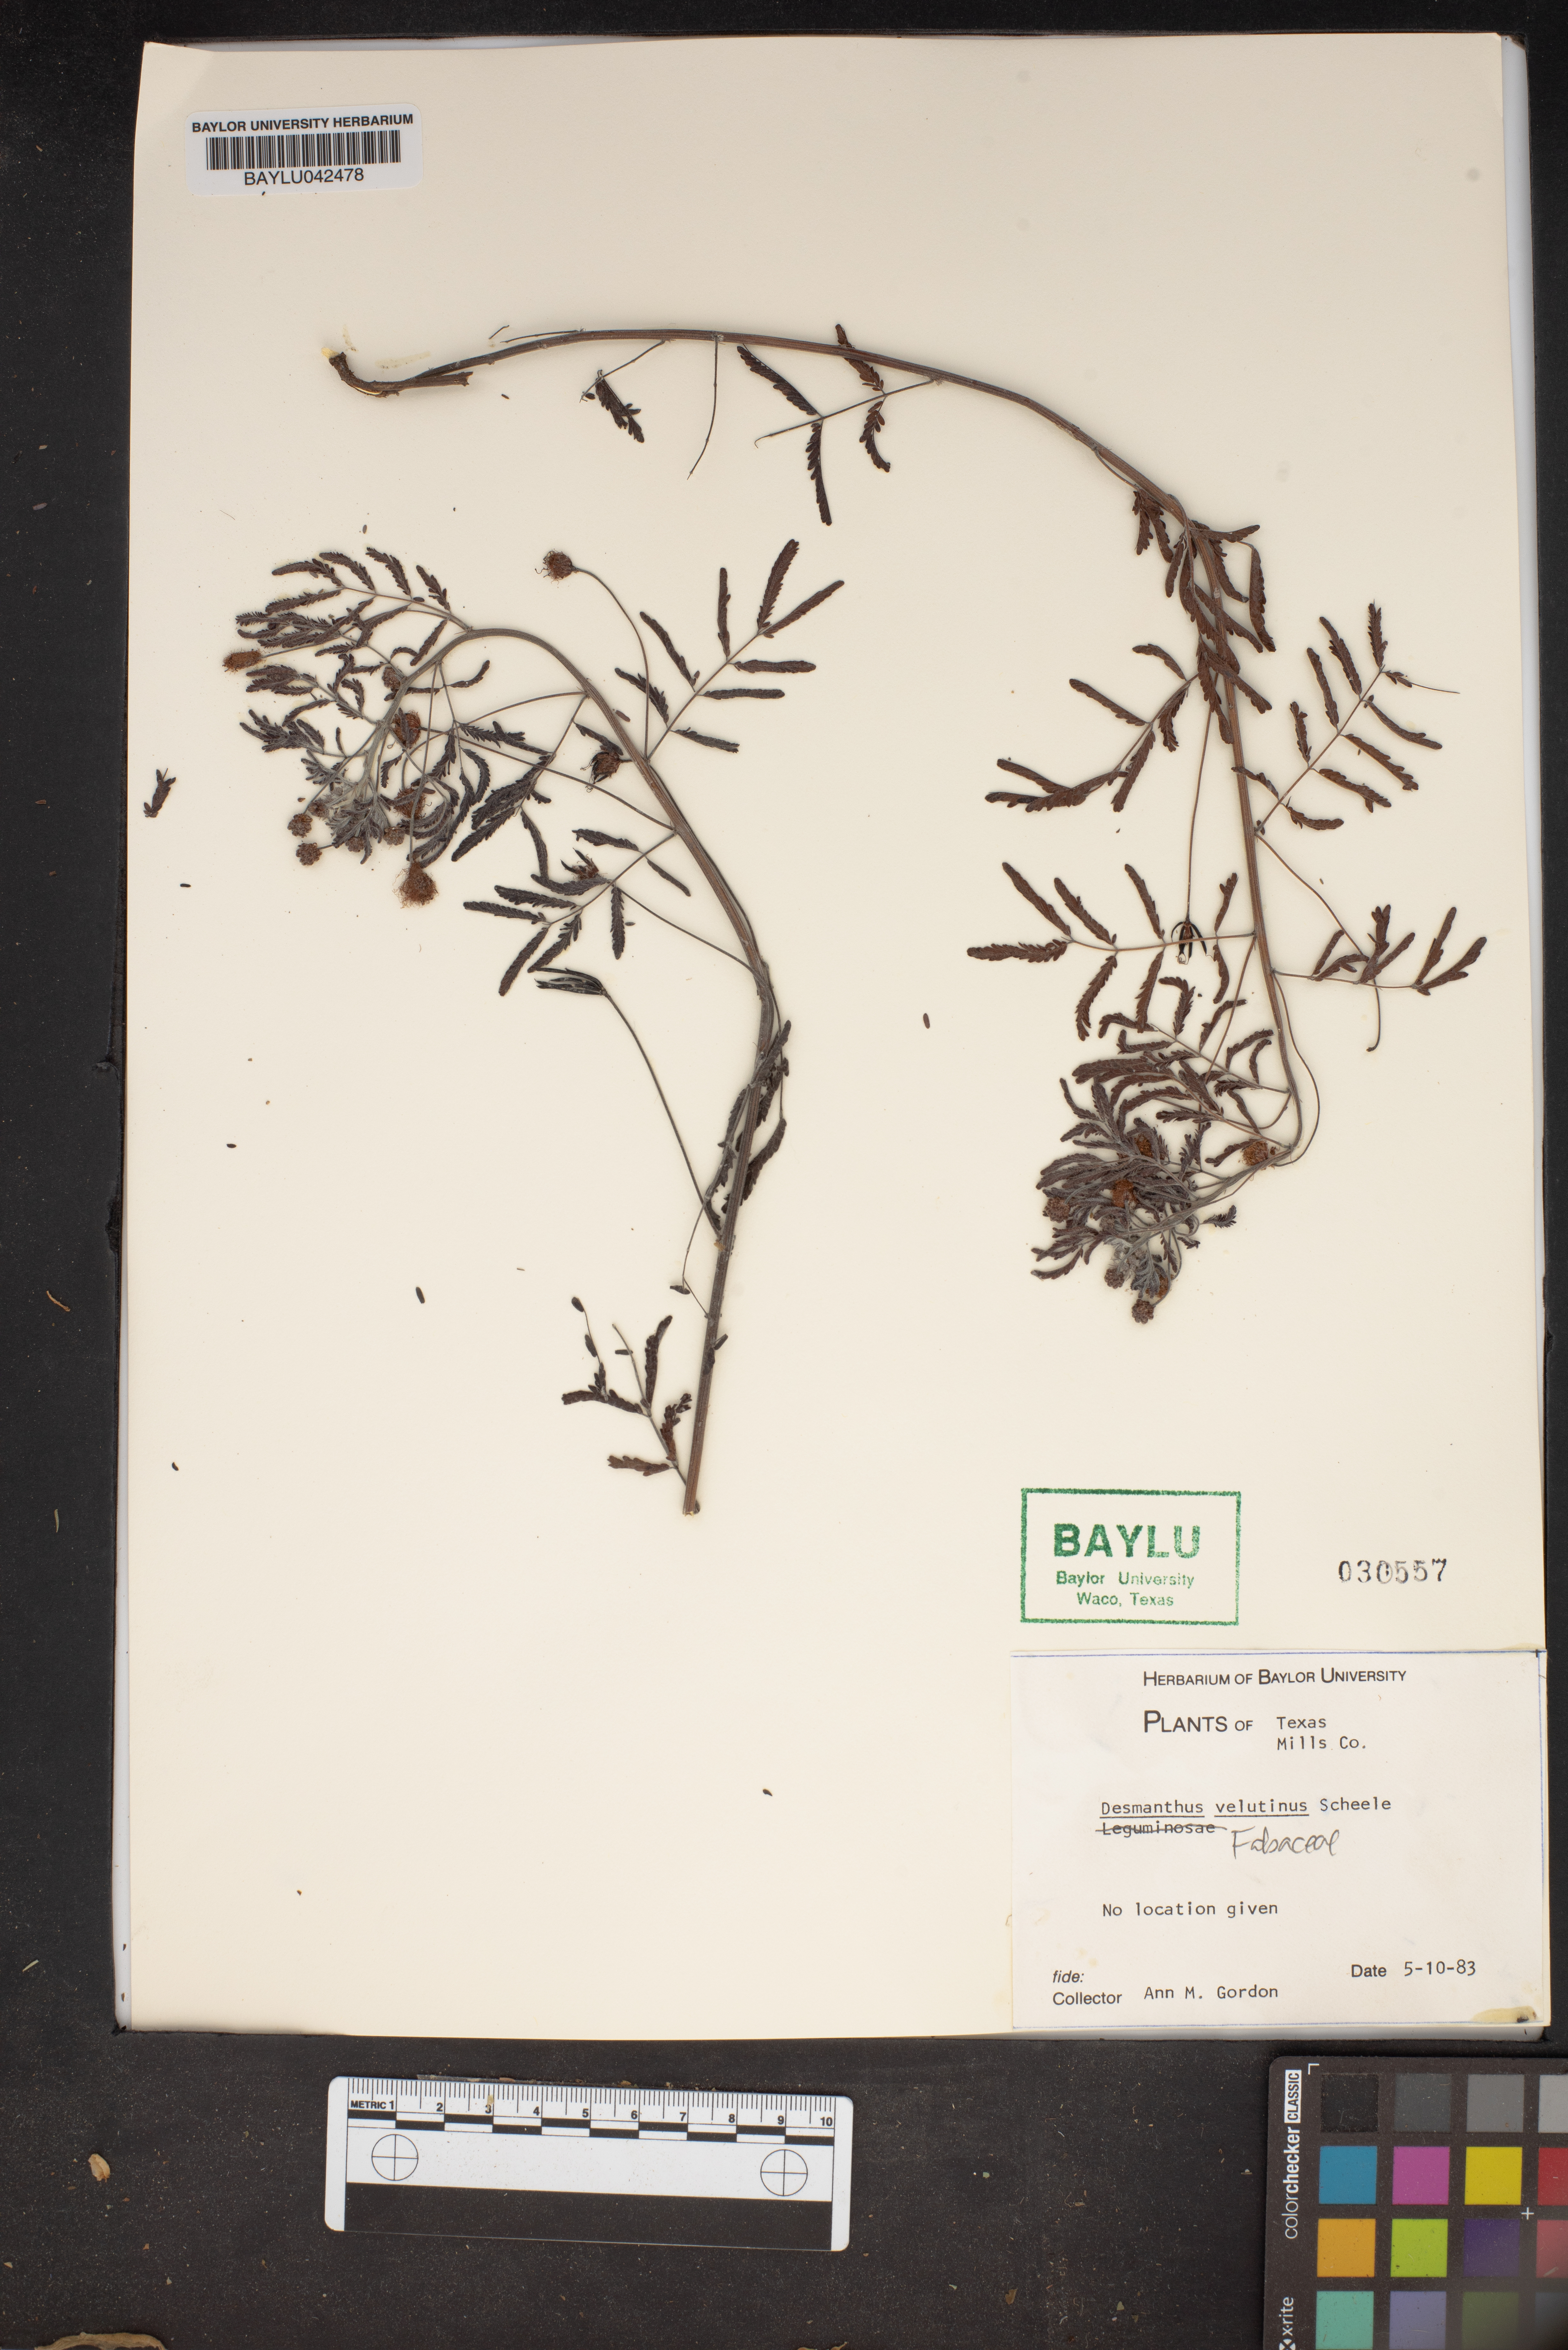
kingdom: Plantae
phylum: Tracheophyta
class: Magnoliopsida
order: Fabales
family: Fabaceae
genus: Desmanthus
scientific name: Desmanthus velutinus
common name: Velvet bundle-flower
